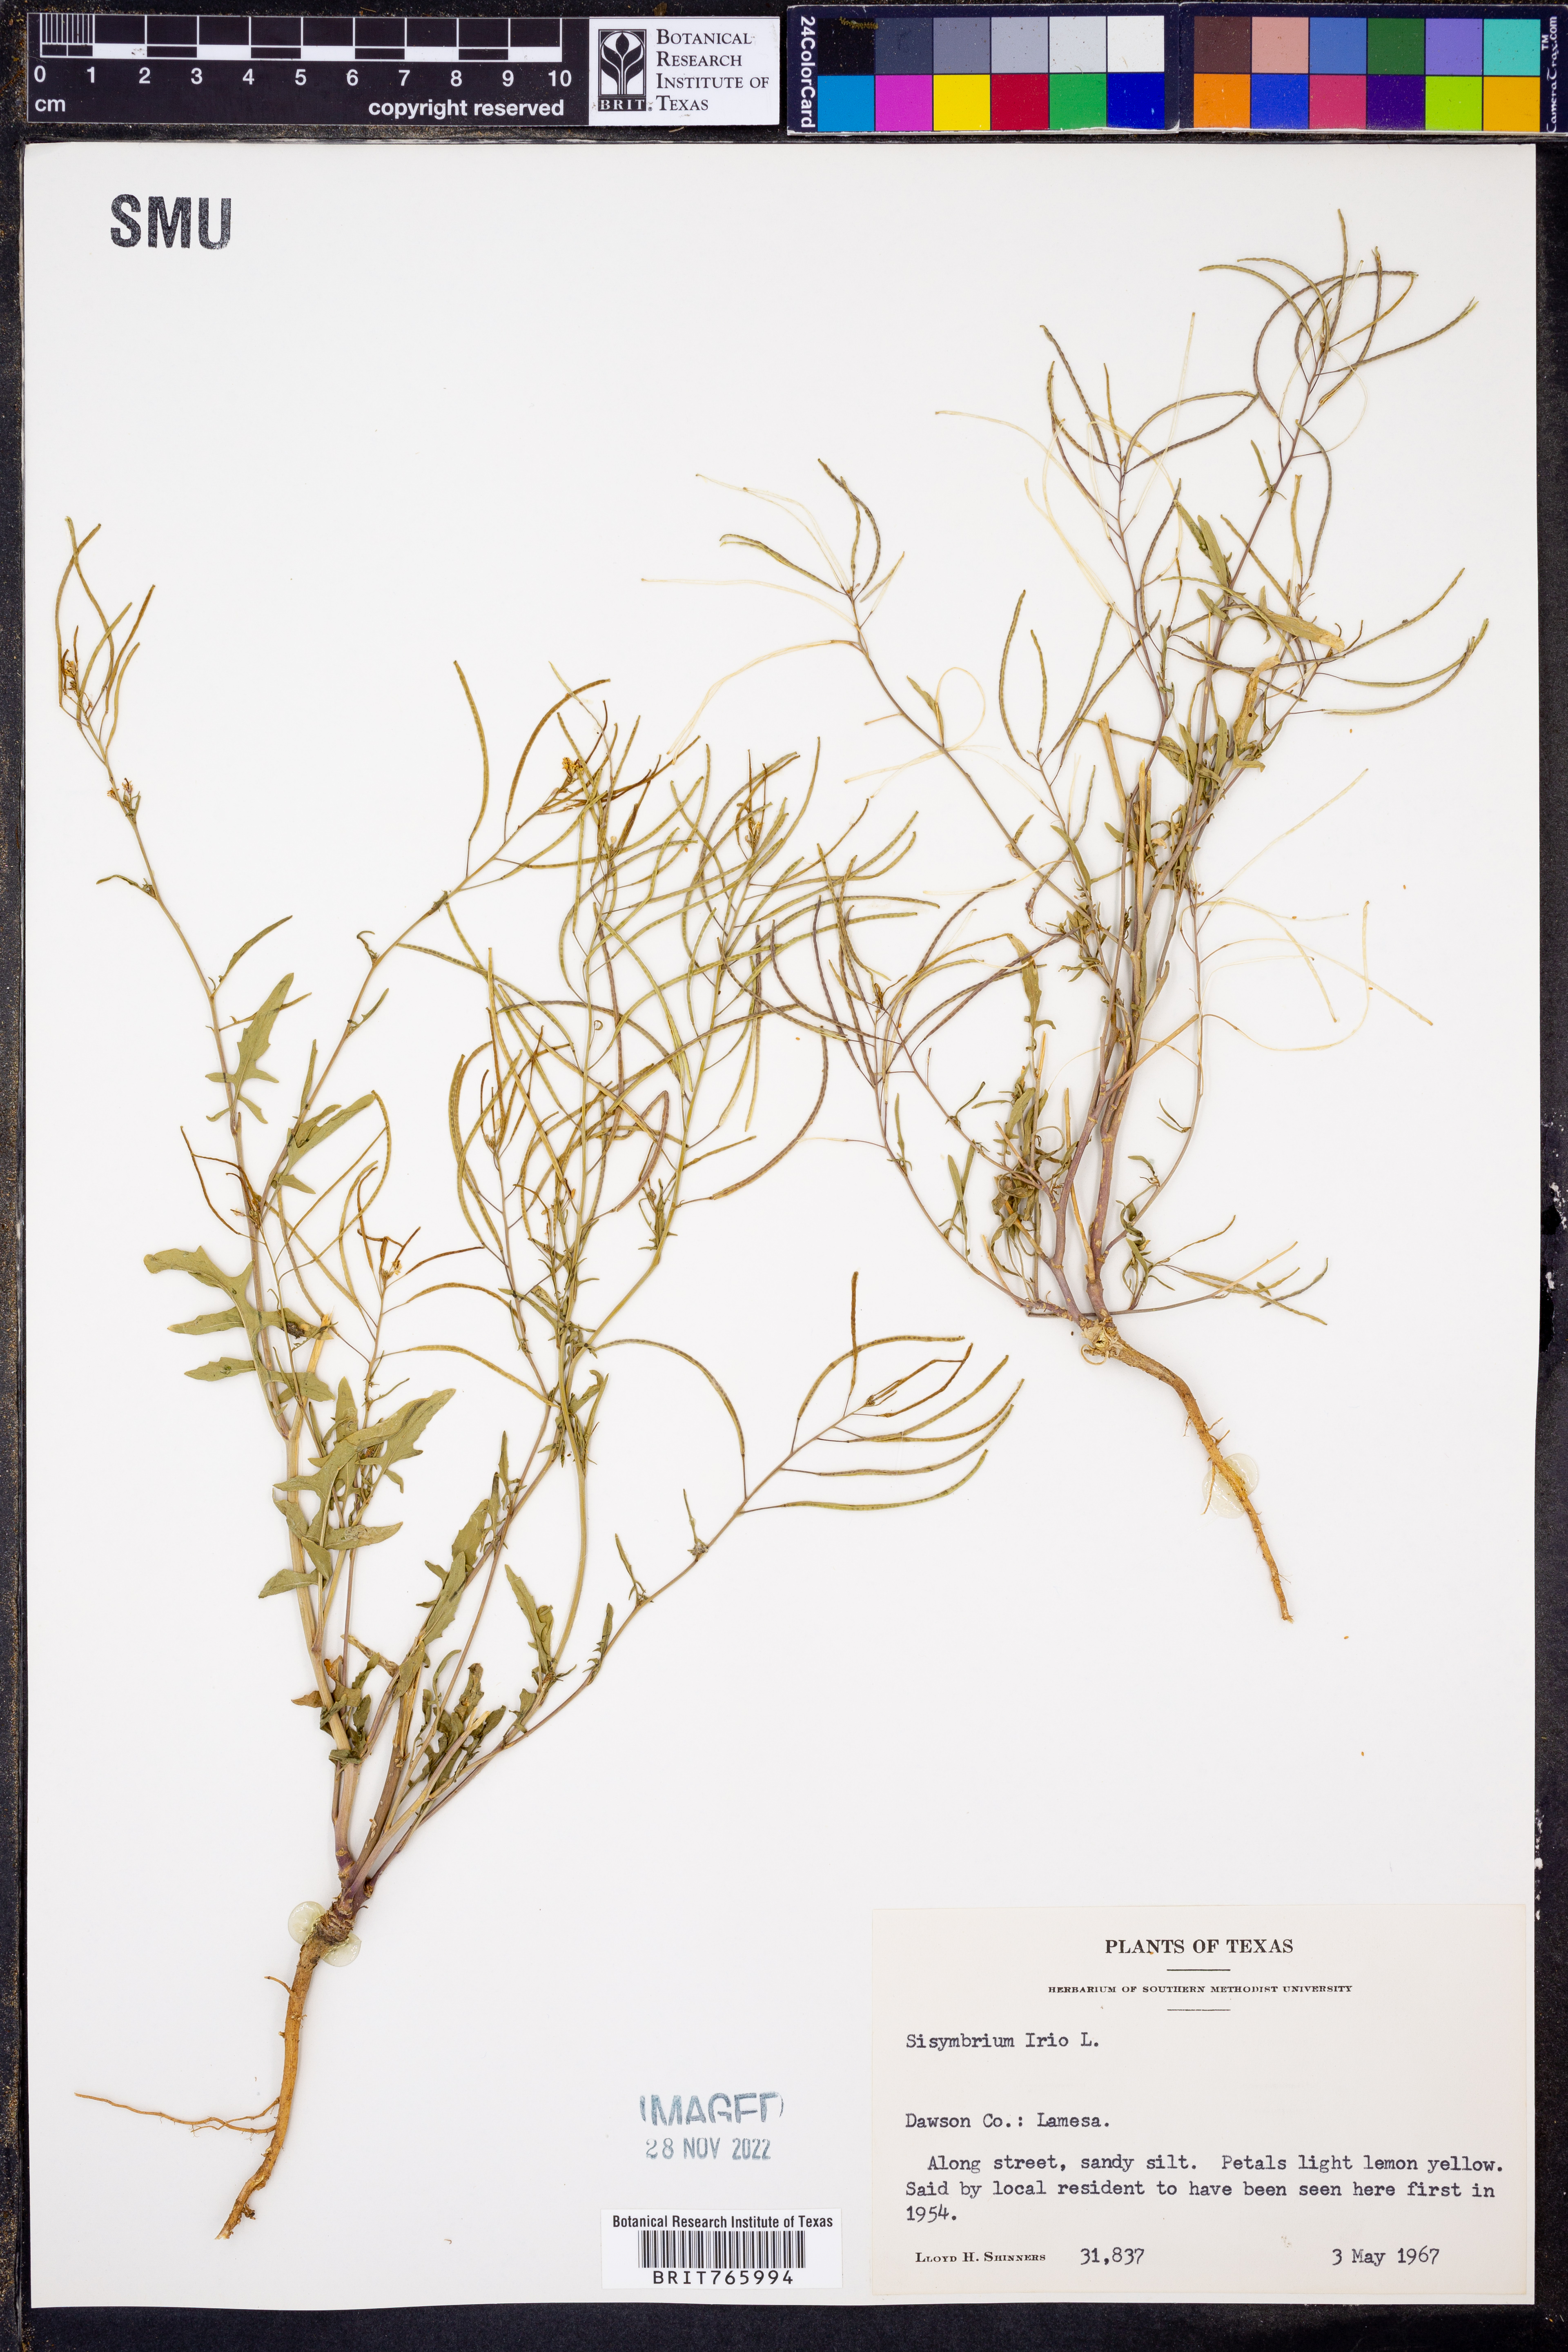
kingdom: Plantae
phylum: Tracheophyta
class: Magnoliopsida
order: Brassicales
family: Brassicaceae
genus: Sisymbrium
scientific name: Sisymbrium irio
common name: London rocket
